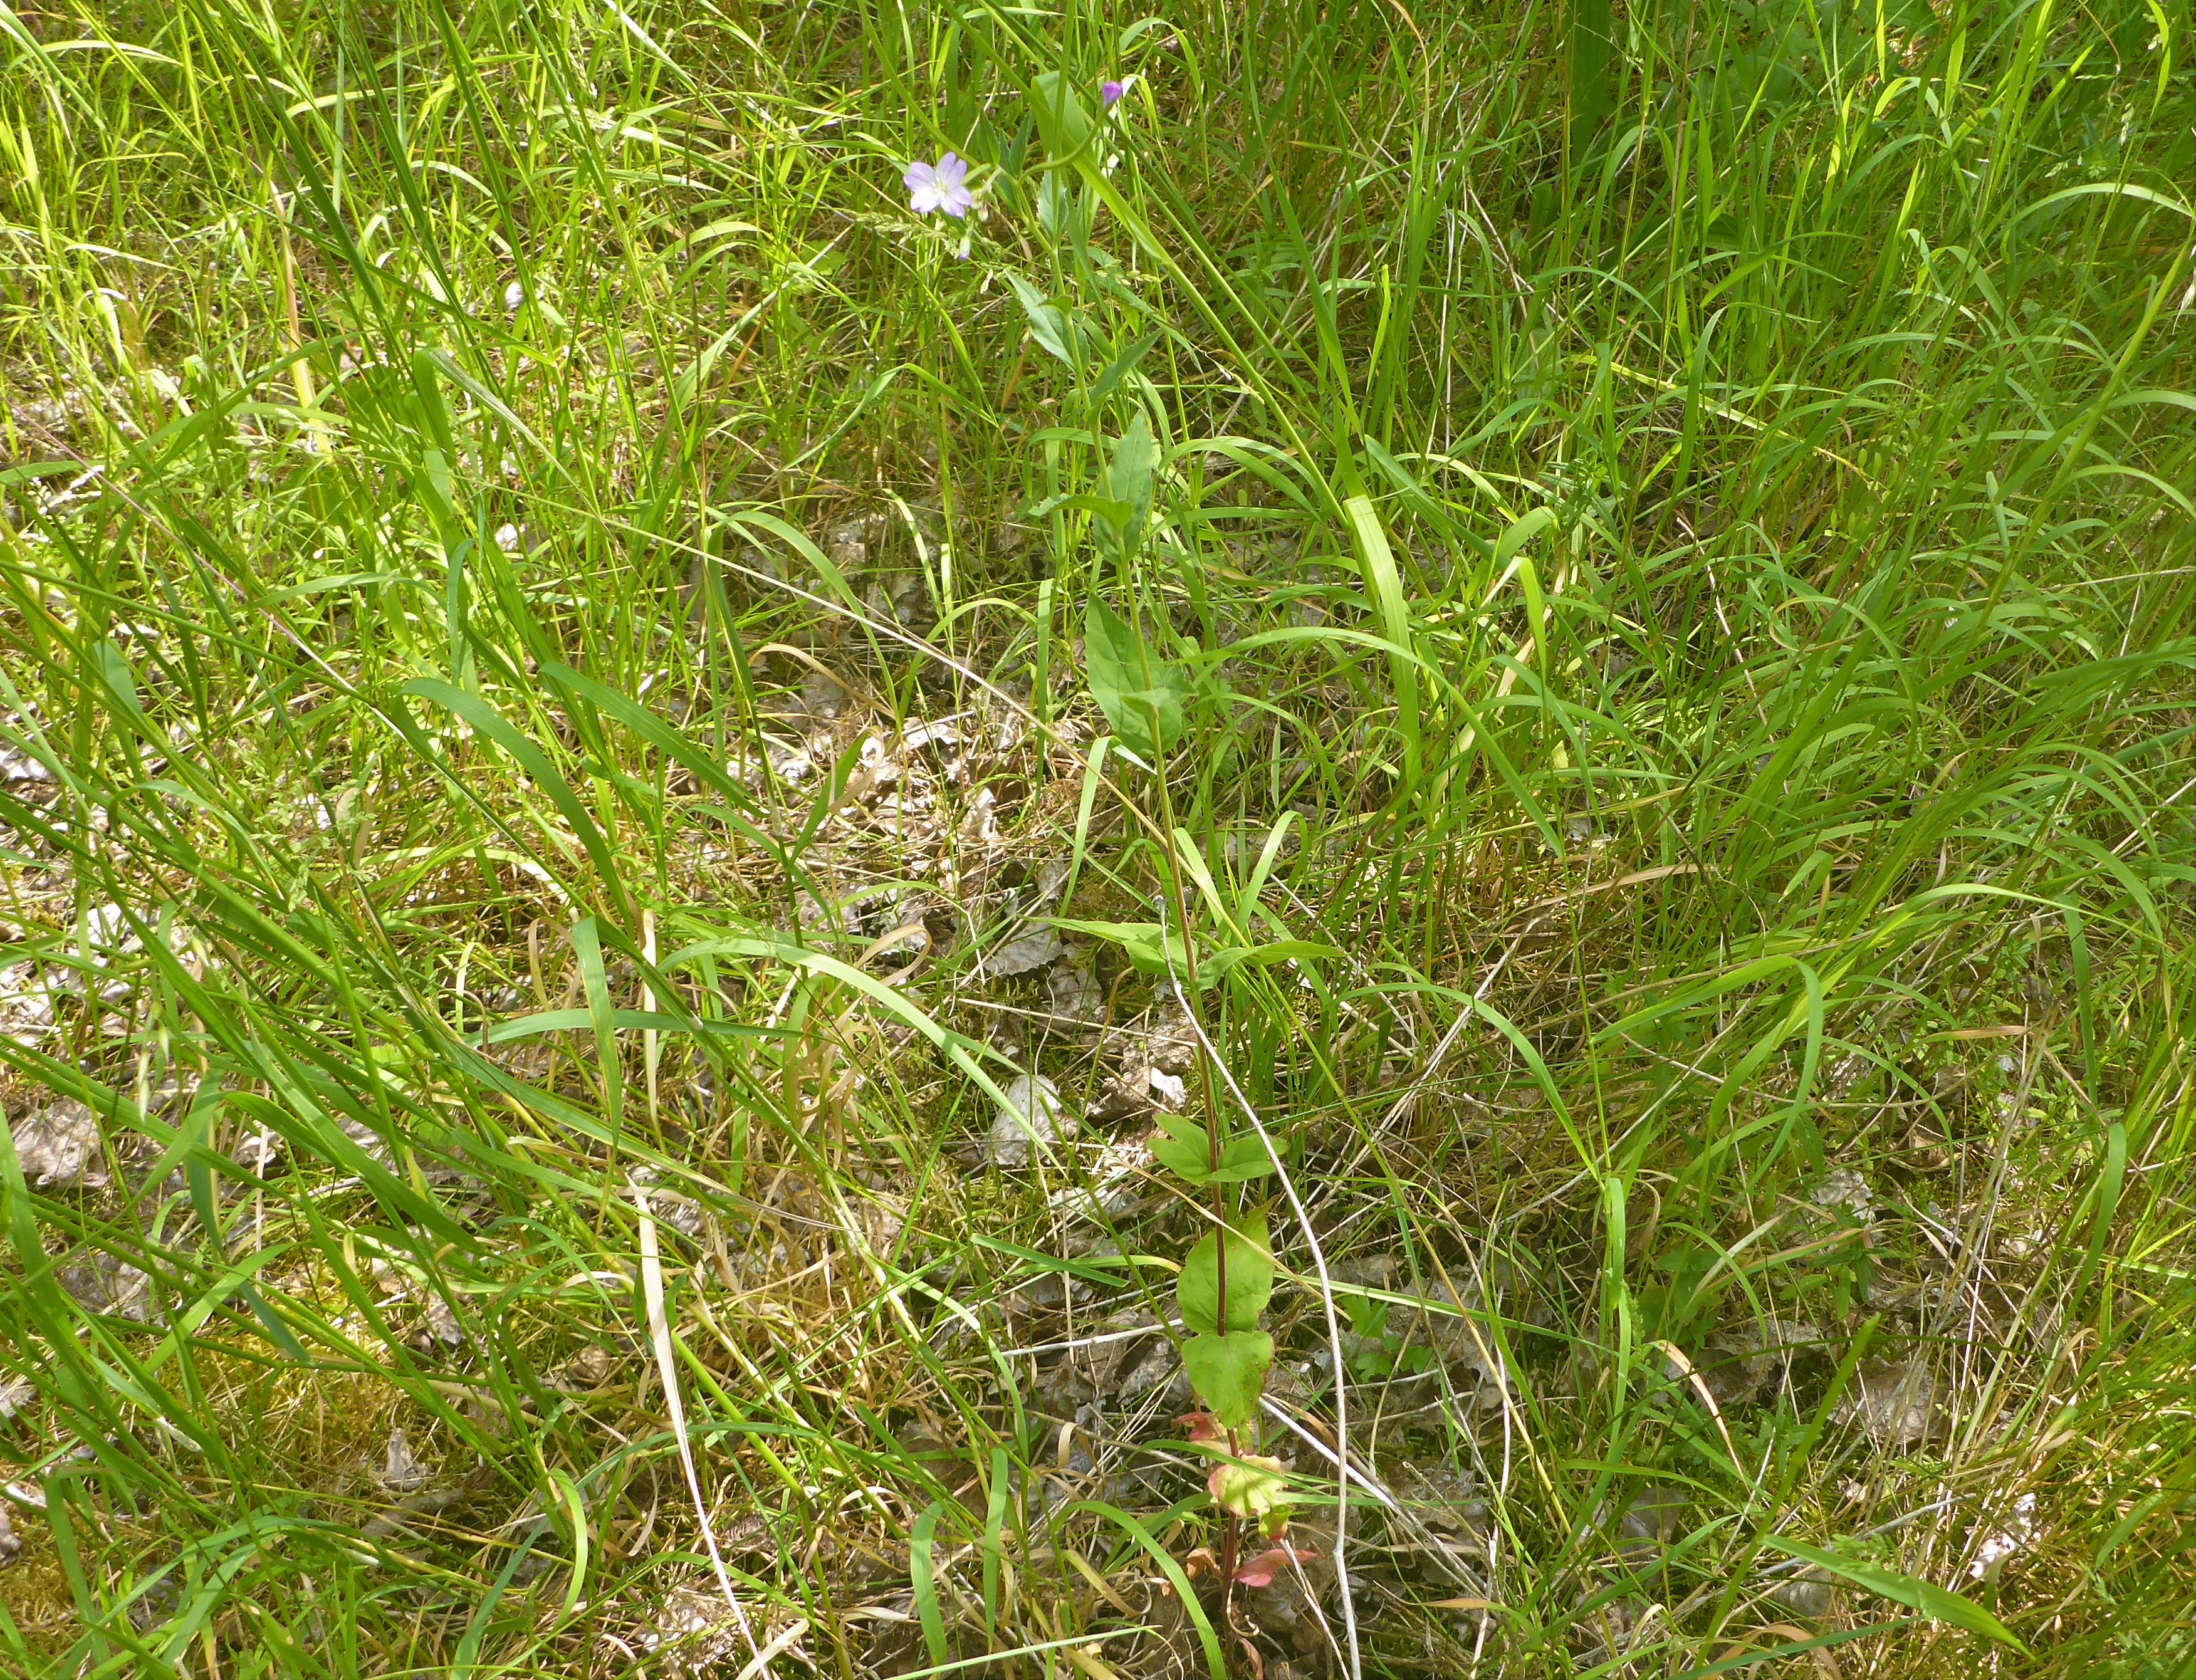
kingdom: Plantae
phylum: Tracheophyta
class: Magnoliopsida
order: Myrtales
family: Onagraceae
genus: Epilobium
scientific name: Epilobium montanum
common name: Glat dueurt
